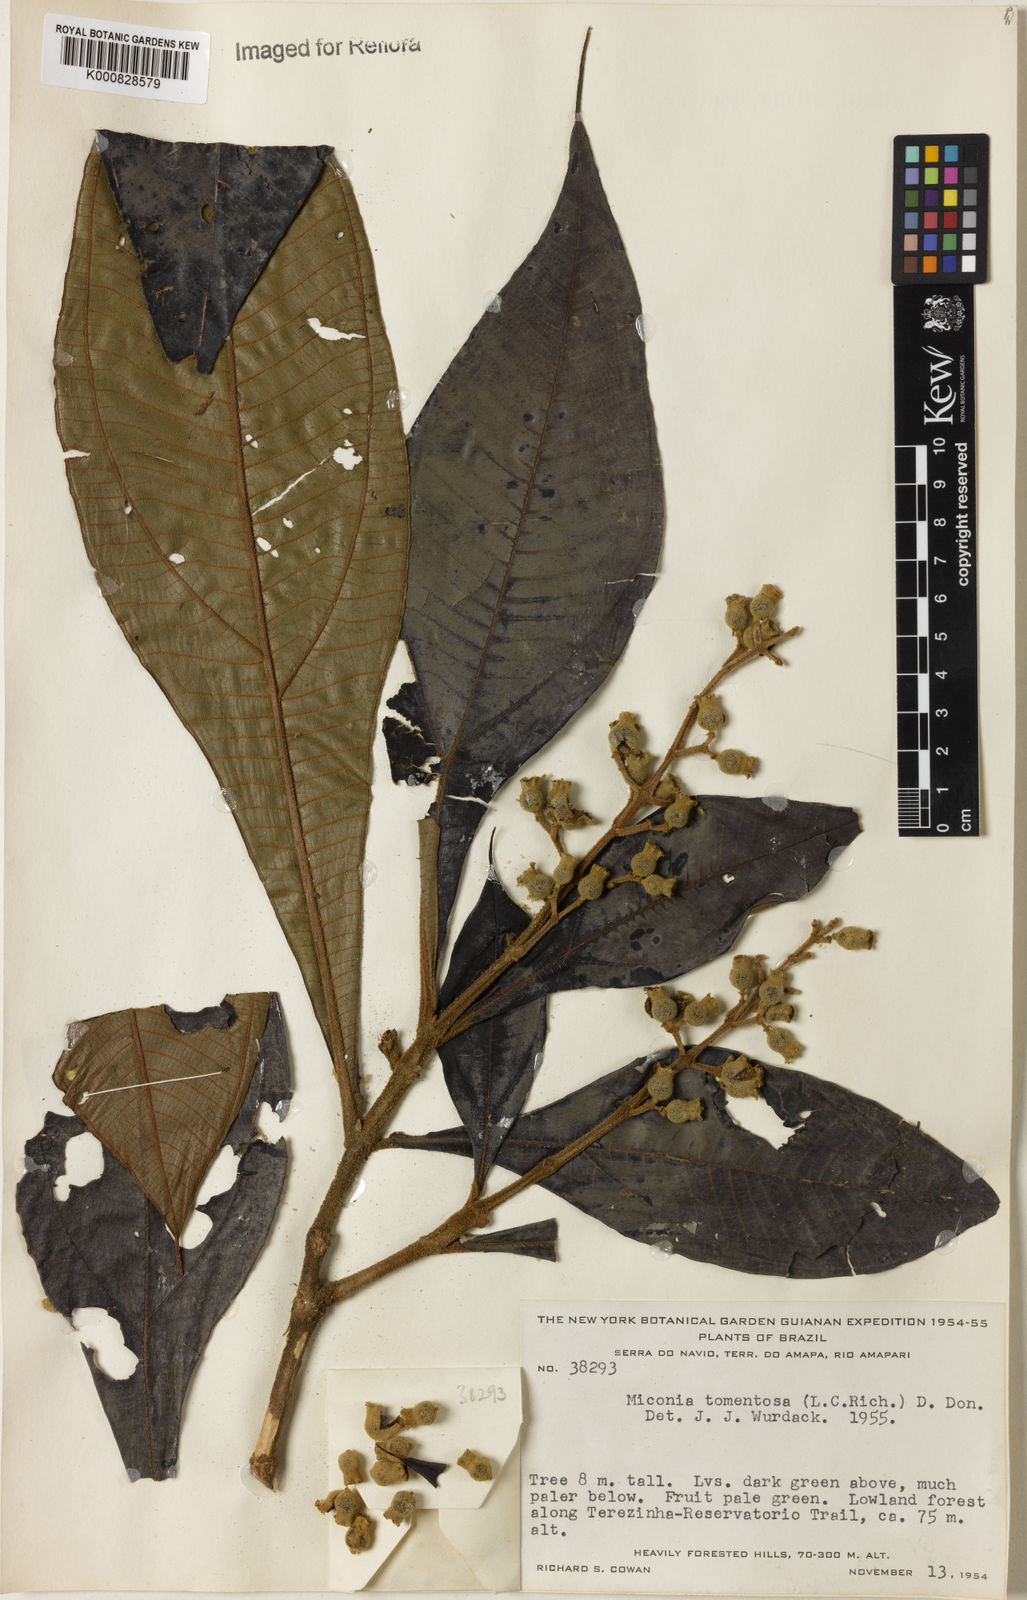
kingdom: Plantae
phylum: Tracheophyta
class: Magnoliopsida
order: Myrtales
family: Melastomataceae
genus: Miconia
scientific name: Miconia tomentosa
